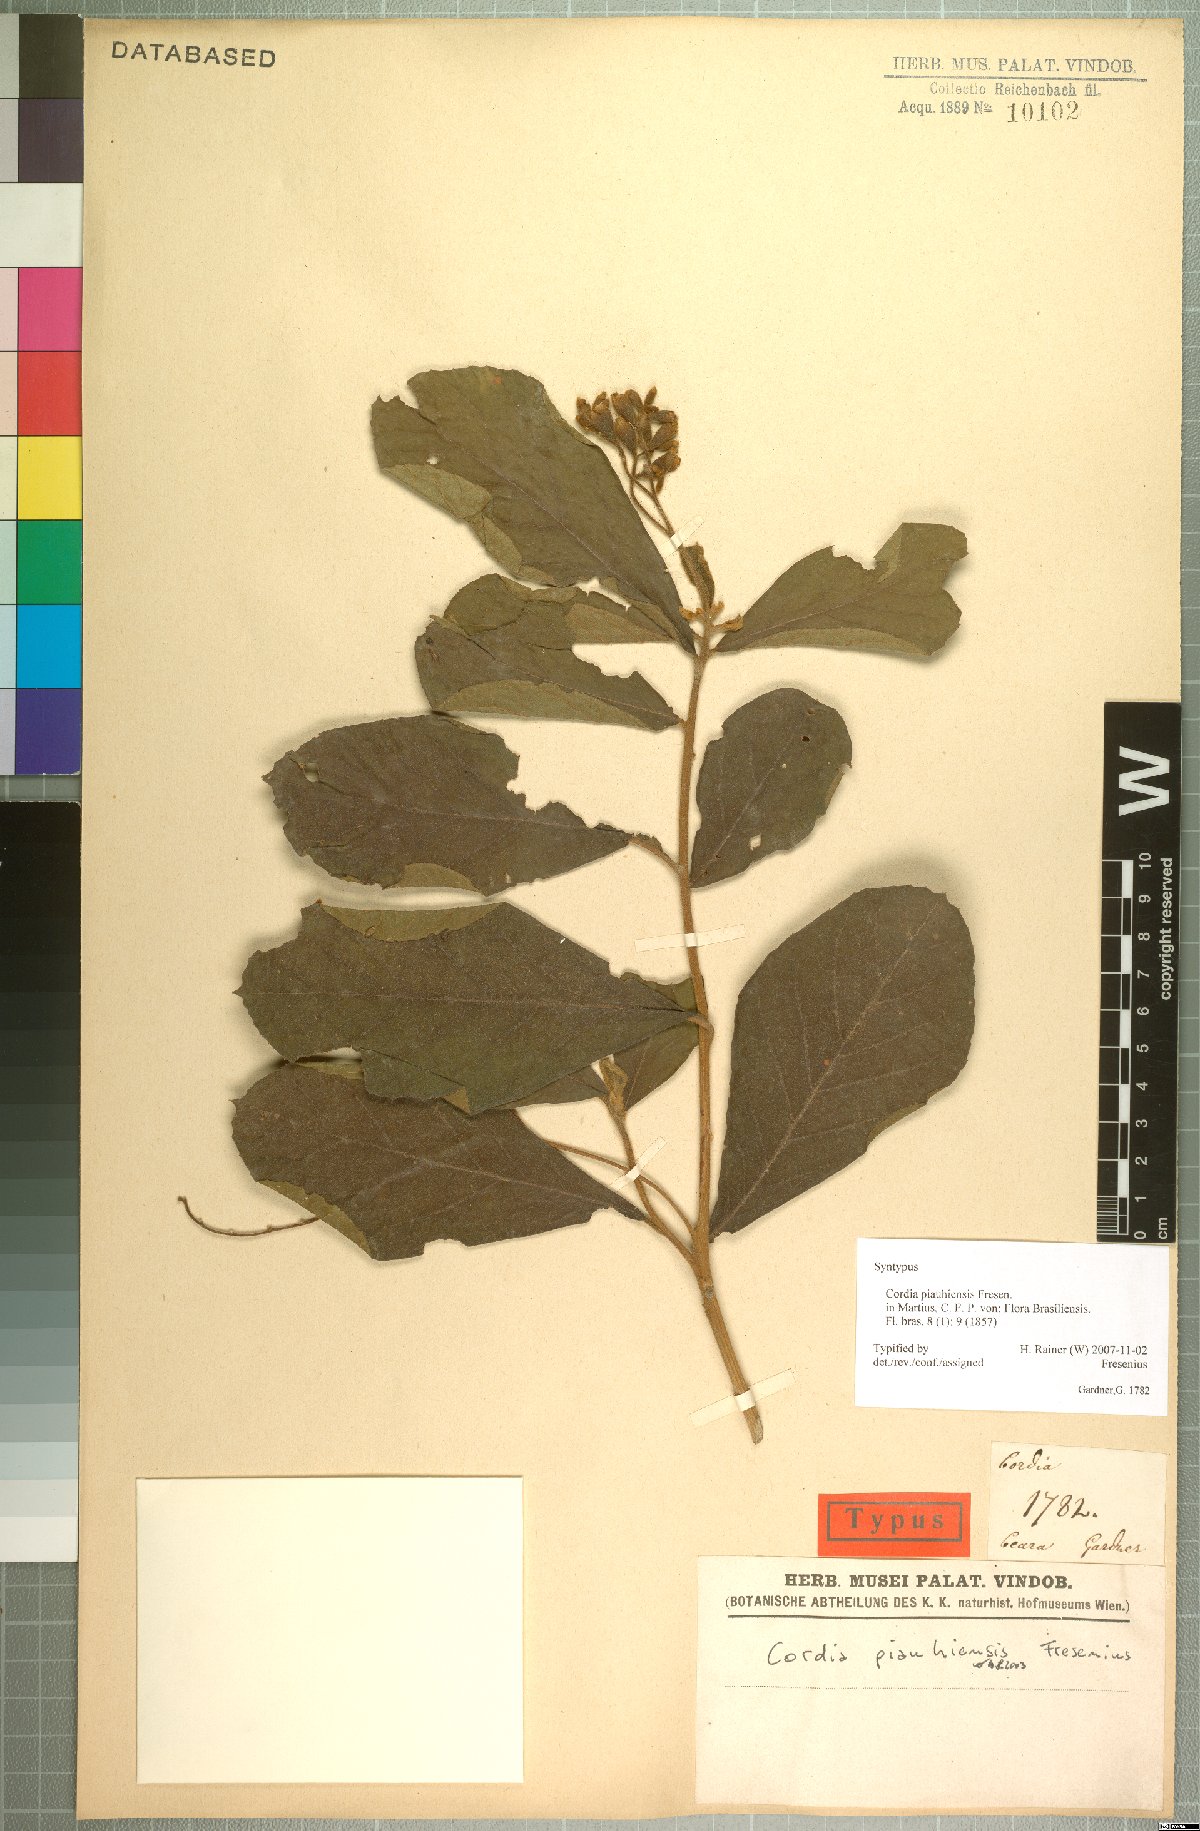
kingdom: Plantae
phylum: Tracheophyta
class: Magnoliopsida
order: Boraginales
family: Cordiaceae
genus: Cordia
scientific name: Cordia rufescens
